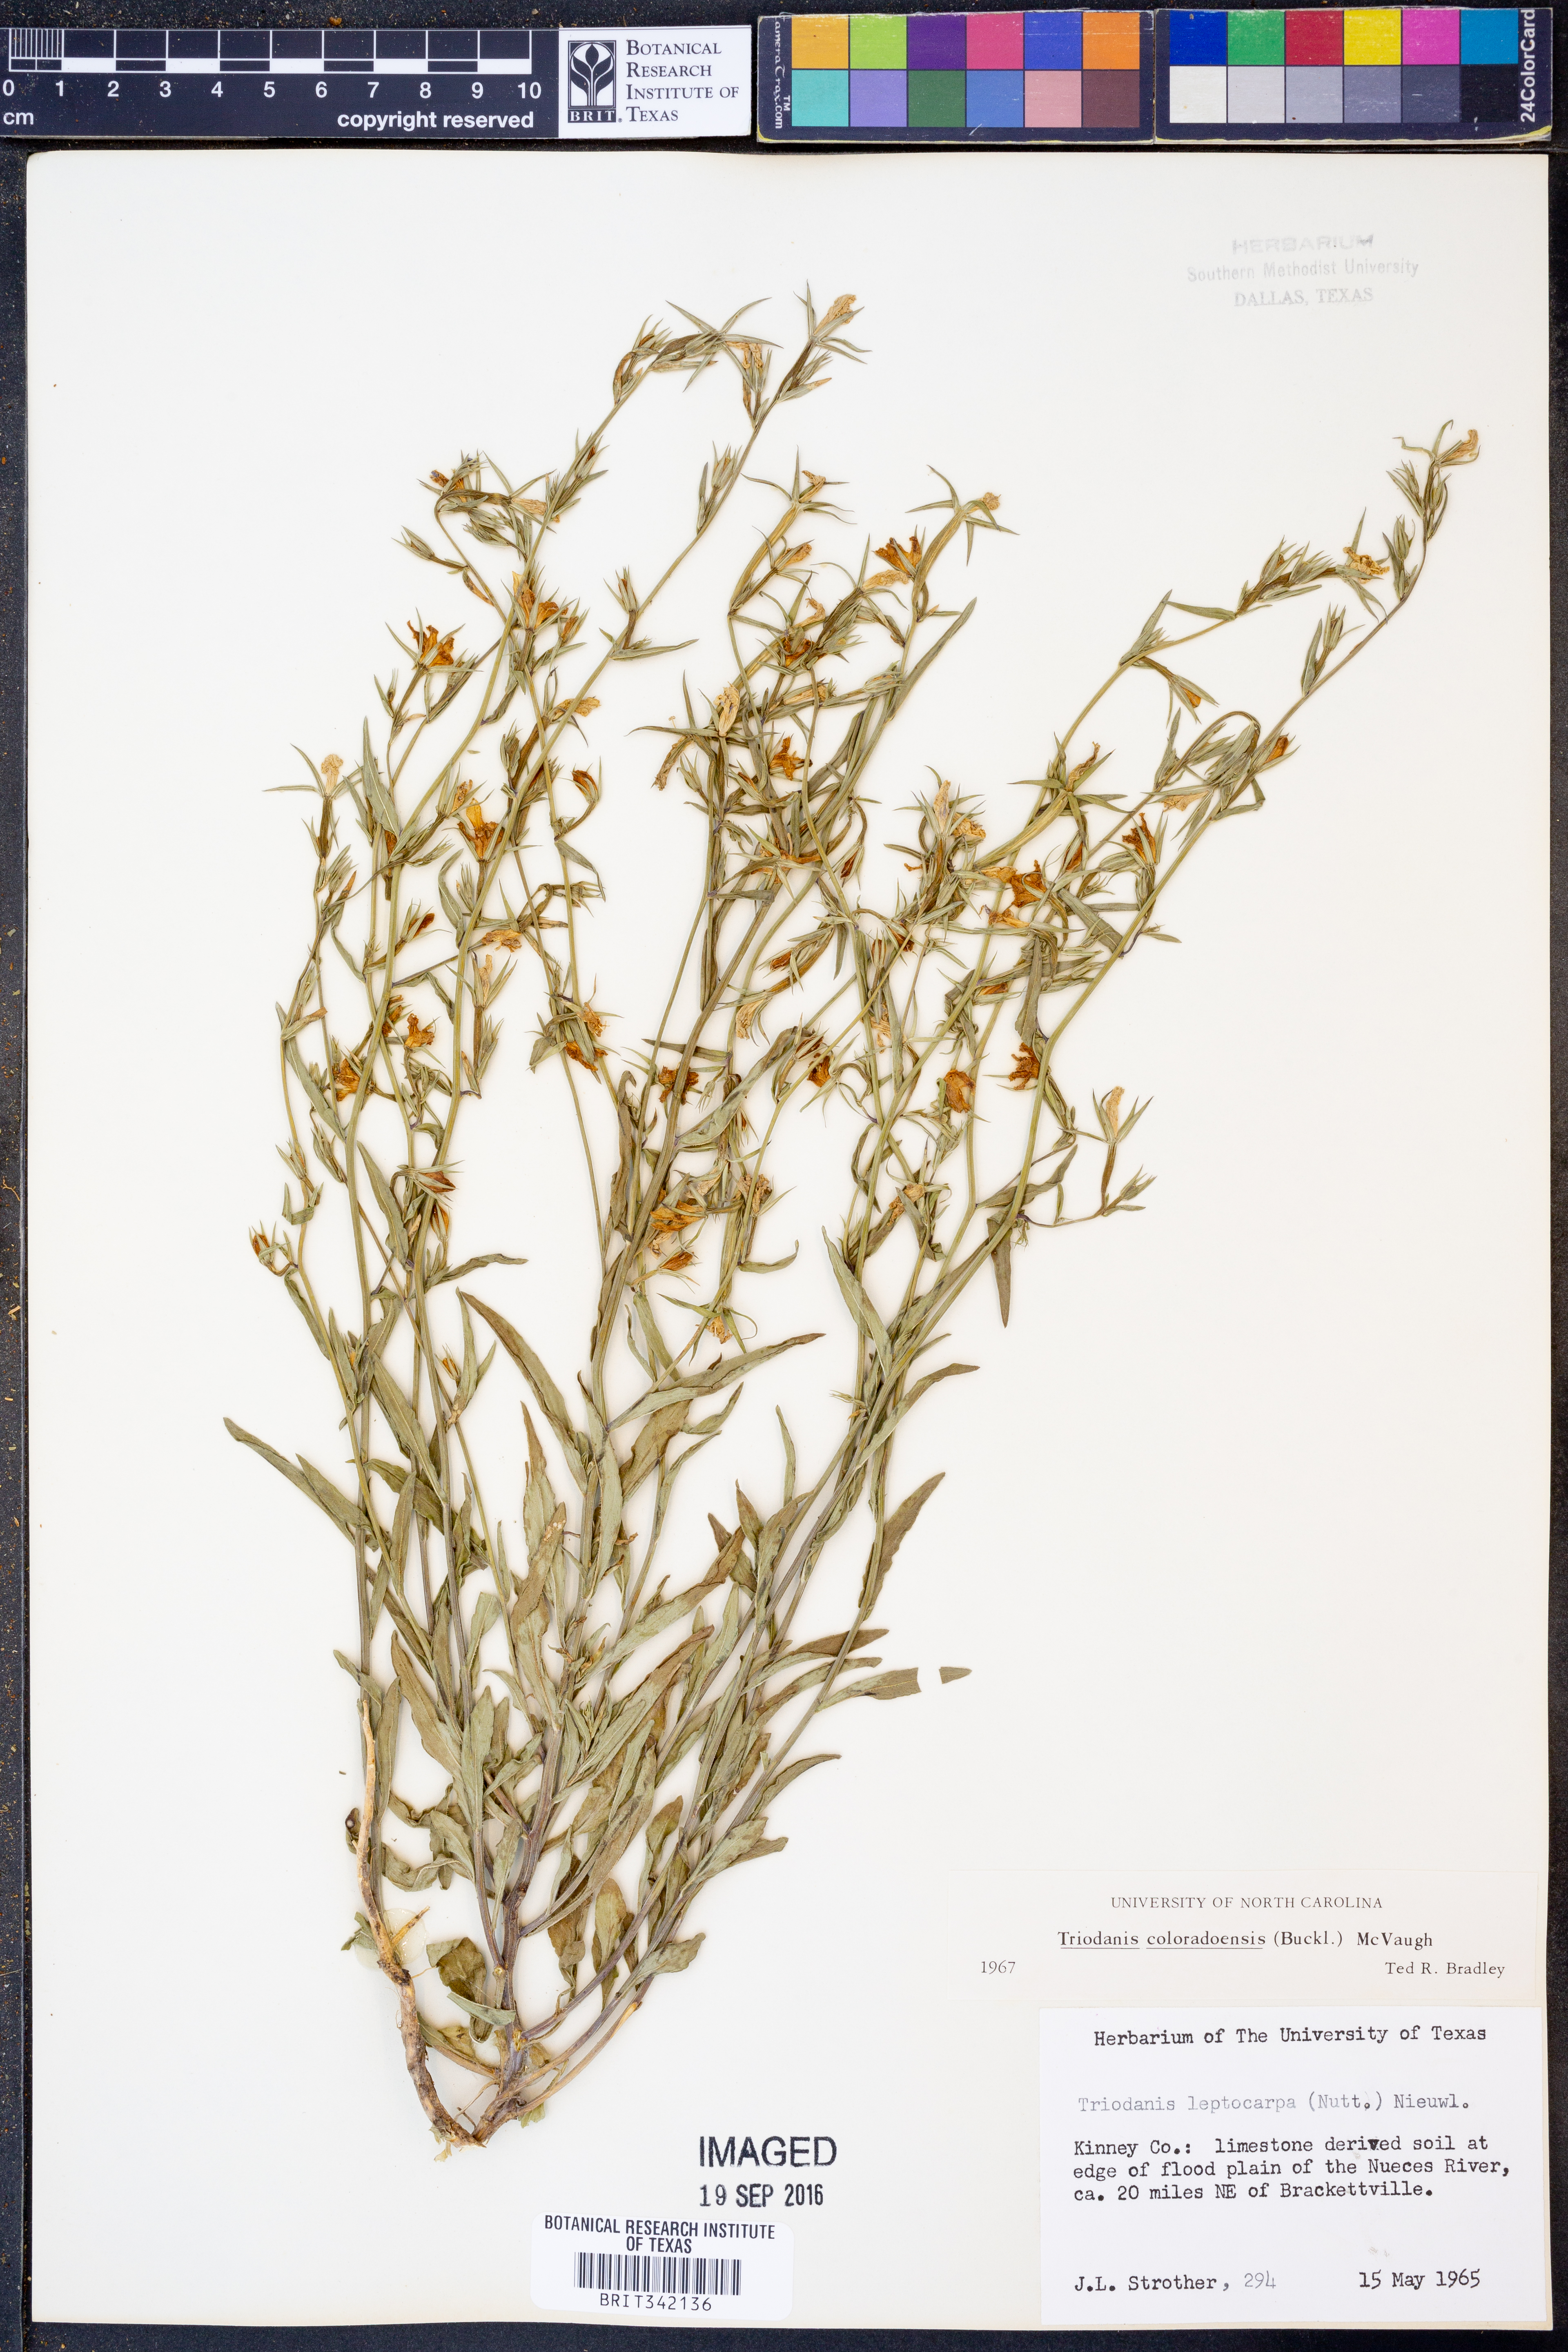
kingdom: Plantae
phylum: Tracheophyta
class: Magnoliopsida
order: Asterales
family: Campanulaceae
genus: Triodanis
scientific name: Triodanis coloradoensis
